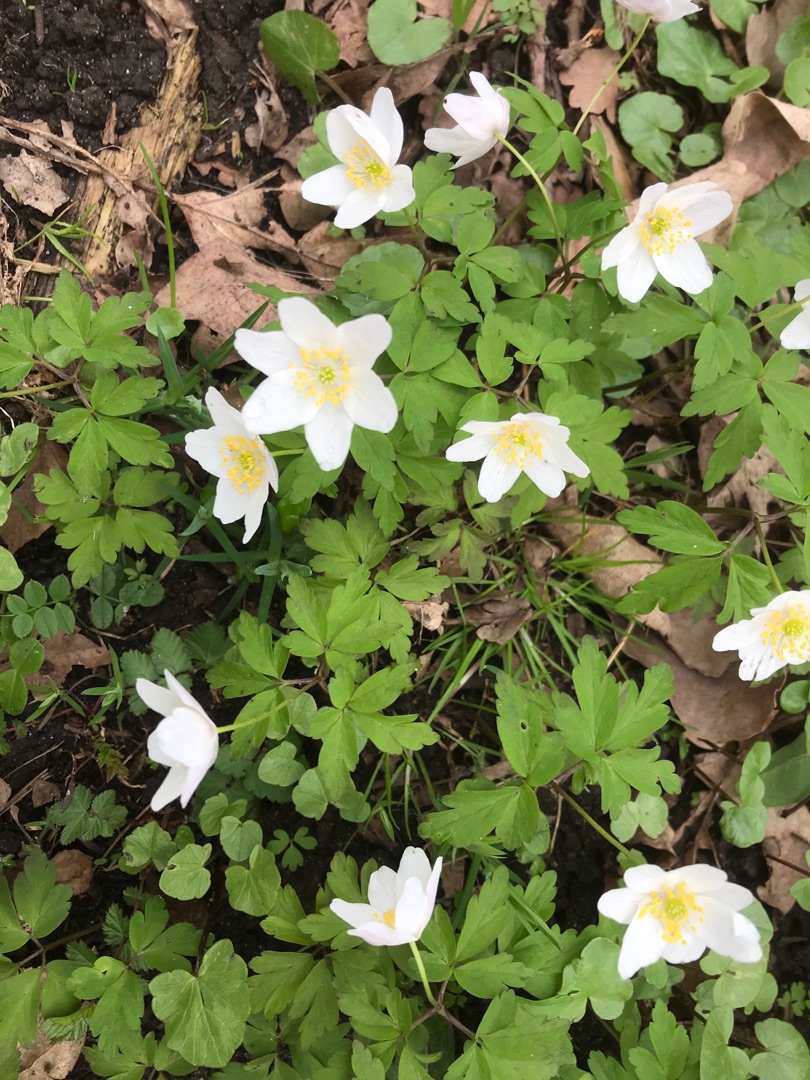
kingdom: Plantae
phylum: Tracheophyta
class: Magnoliopsida
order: Ranunculales
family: Ranunculaceae
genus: Anemone
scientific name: Anemone nemorosa
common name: Hvid anemone
